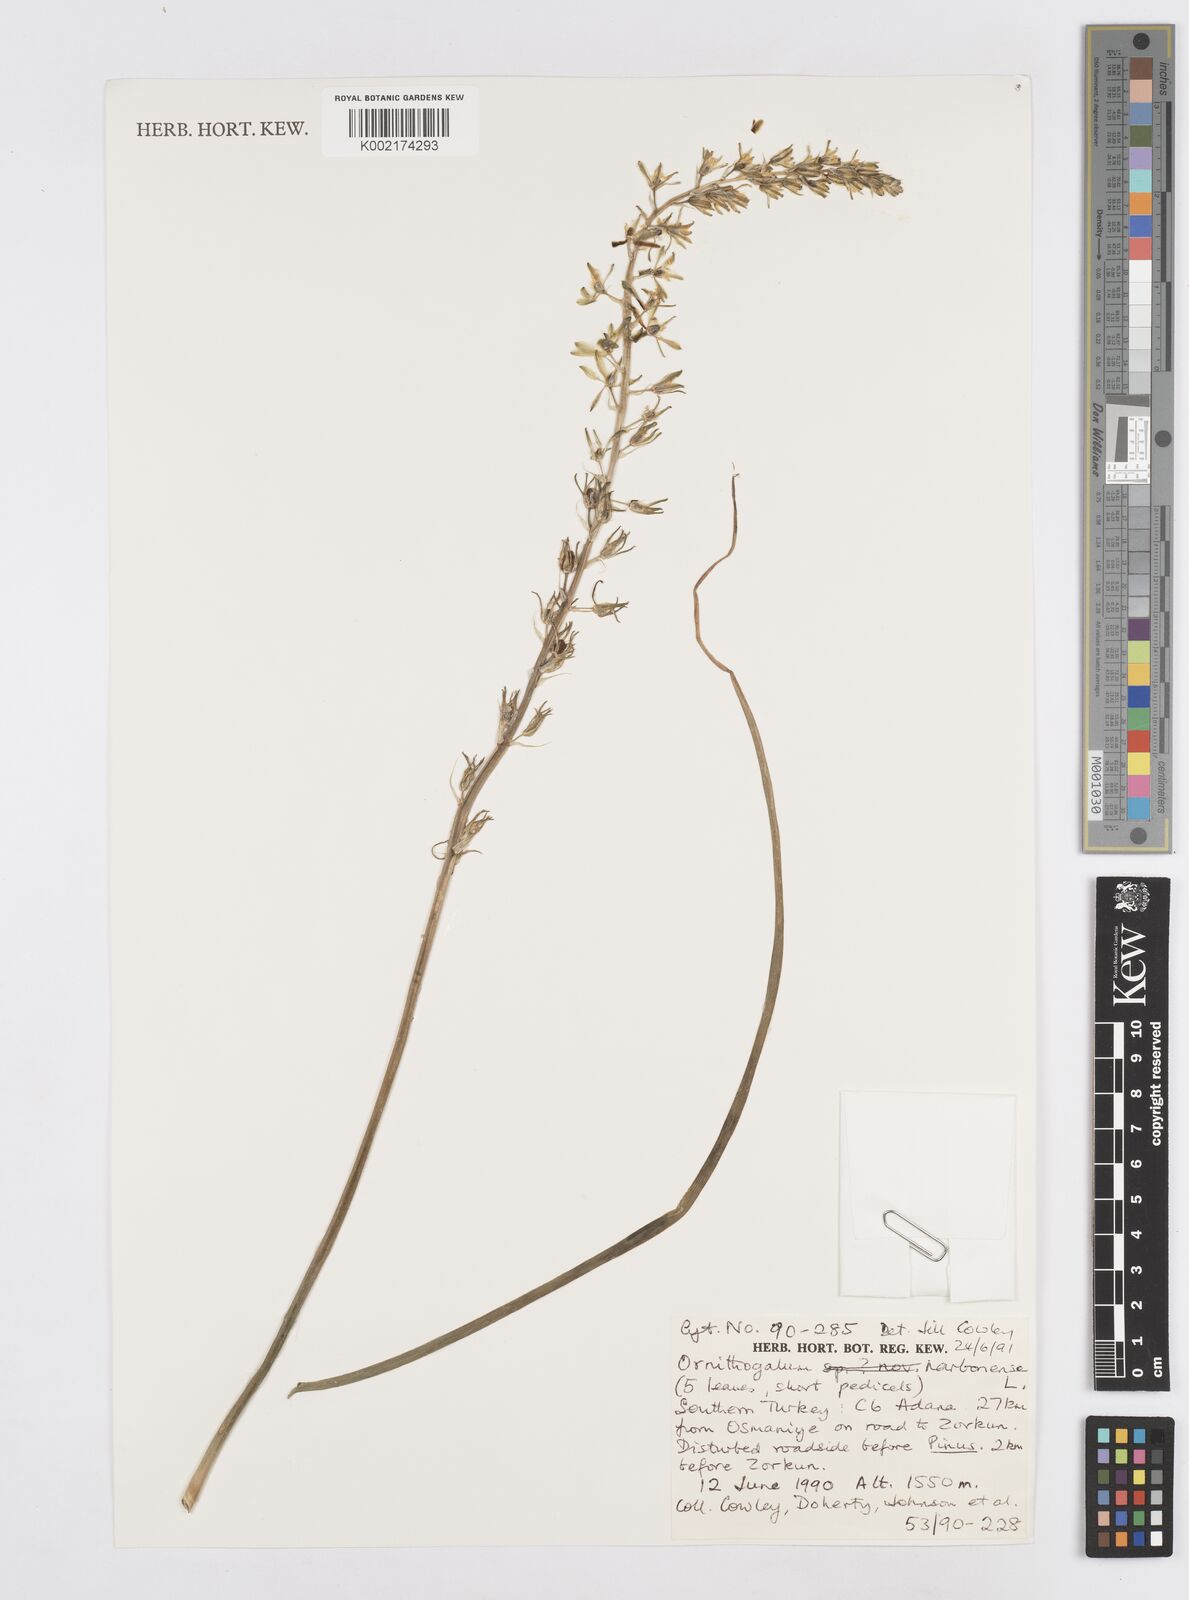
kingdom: Plantae
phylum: Tracheophyta
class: Liliopsida
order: Asparagales
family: Asparagaceae
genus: Ornithogalum
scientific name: Ornithogalum narbonense
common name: Bath-asparagus
